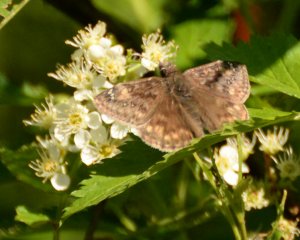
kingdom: Animalia
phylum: Arthropoda
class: Insecta
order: Lepidoptera
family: Hesperiidae
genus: Gesta
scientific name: Gesta
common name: Juvenal's Duskywing
